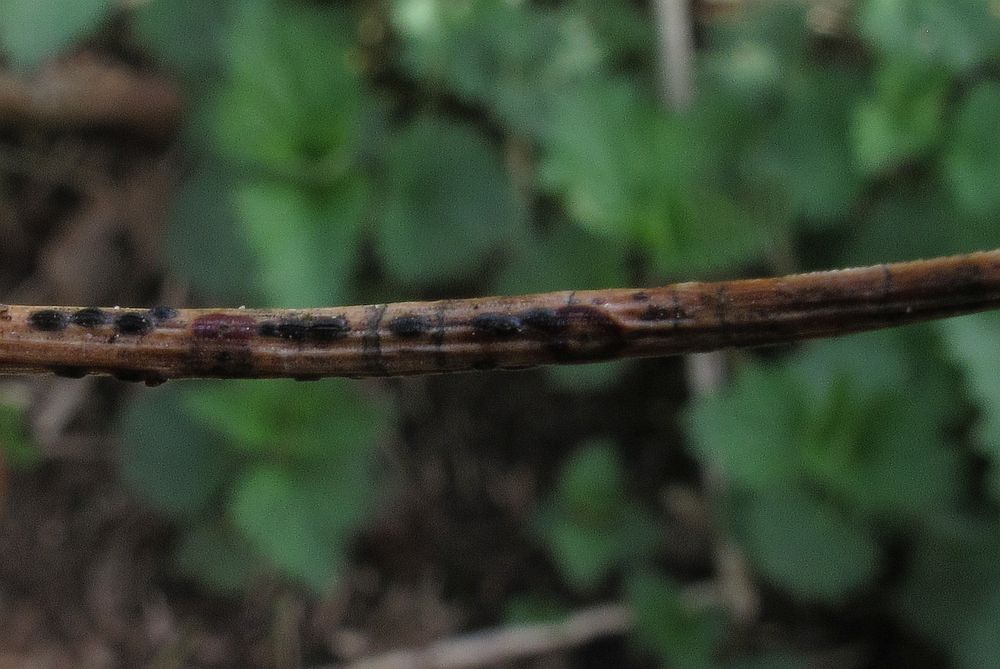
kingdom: Fungi
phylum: Ascomycota
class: Leotiomycetes
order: Rhytismatales
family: Rhytismataceae
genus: Lophodermium
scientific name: Lophodermium pinastri
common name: fyrre-fureplet
